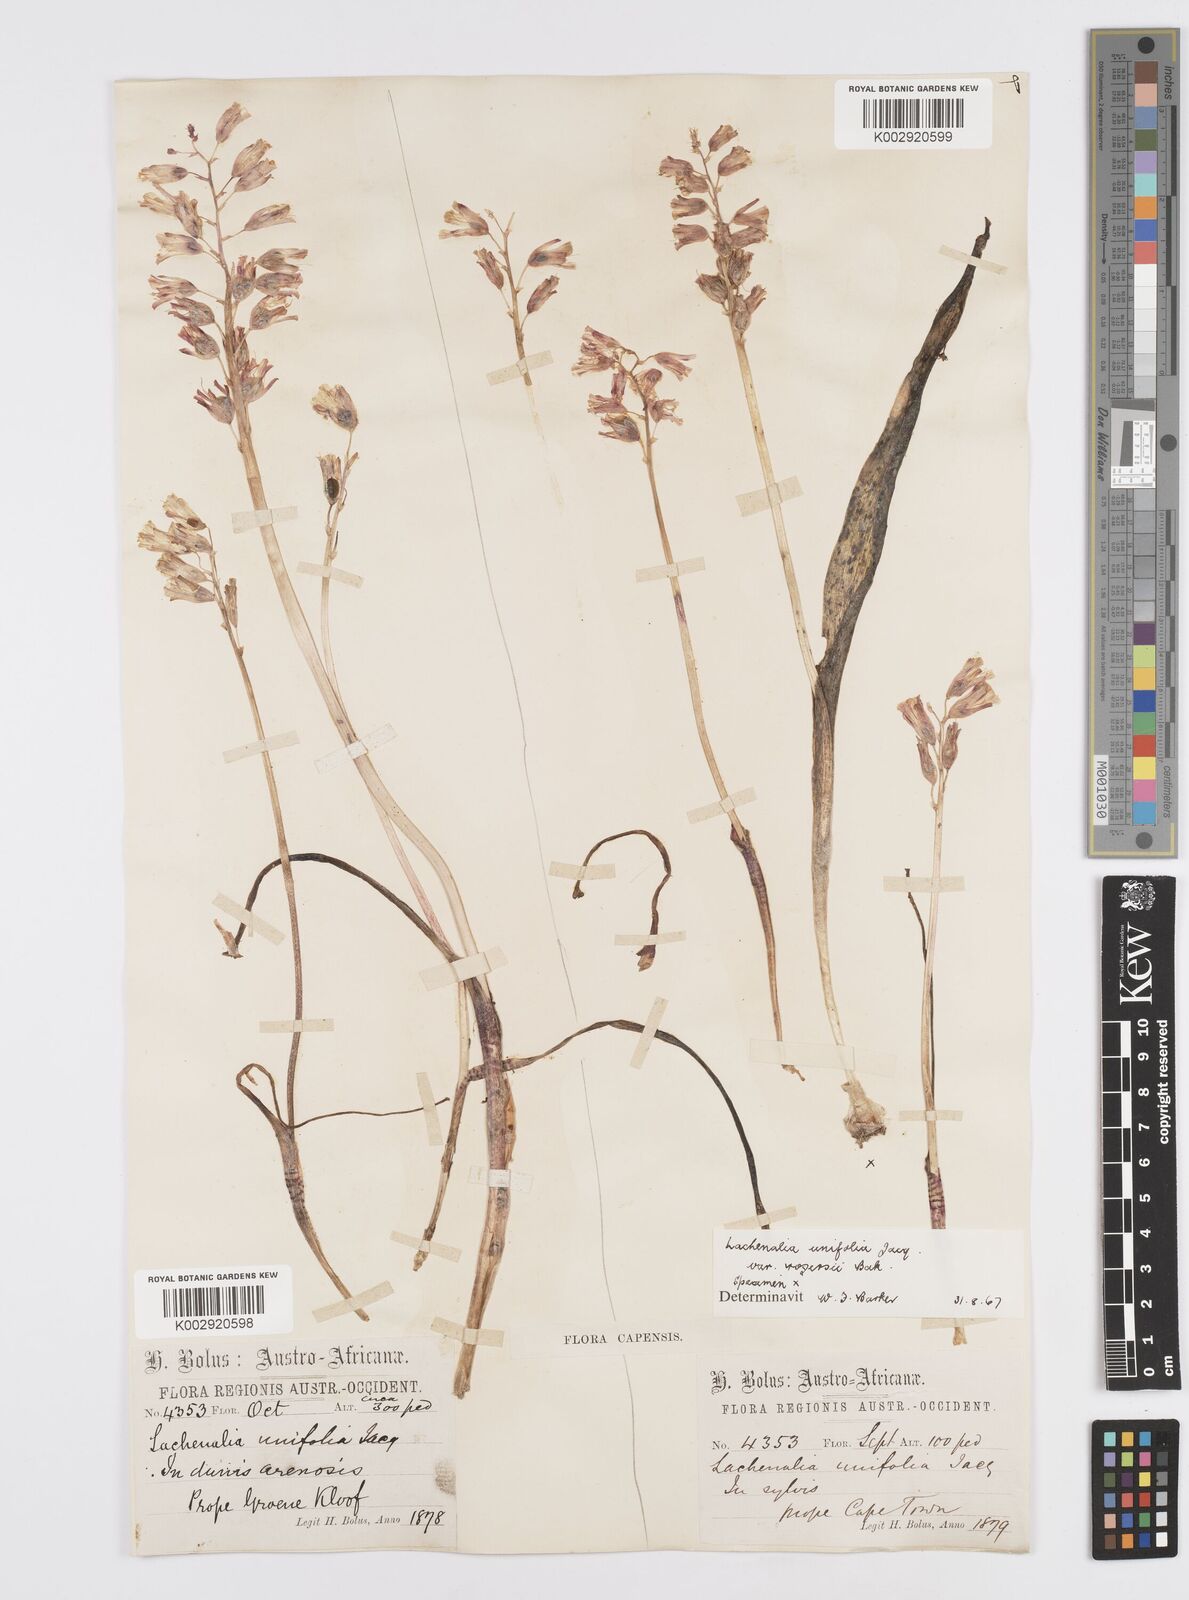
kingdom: Plantae
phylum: Tracheophyta
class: Liliopsida
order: Asparagales
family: Asparagaceae
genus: Lachenalia
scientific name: Lachenalia unifolia
